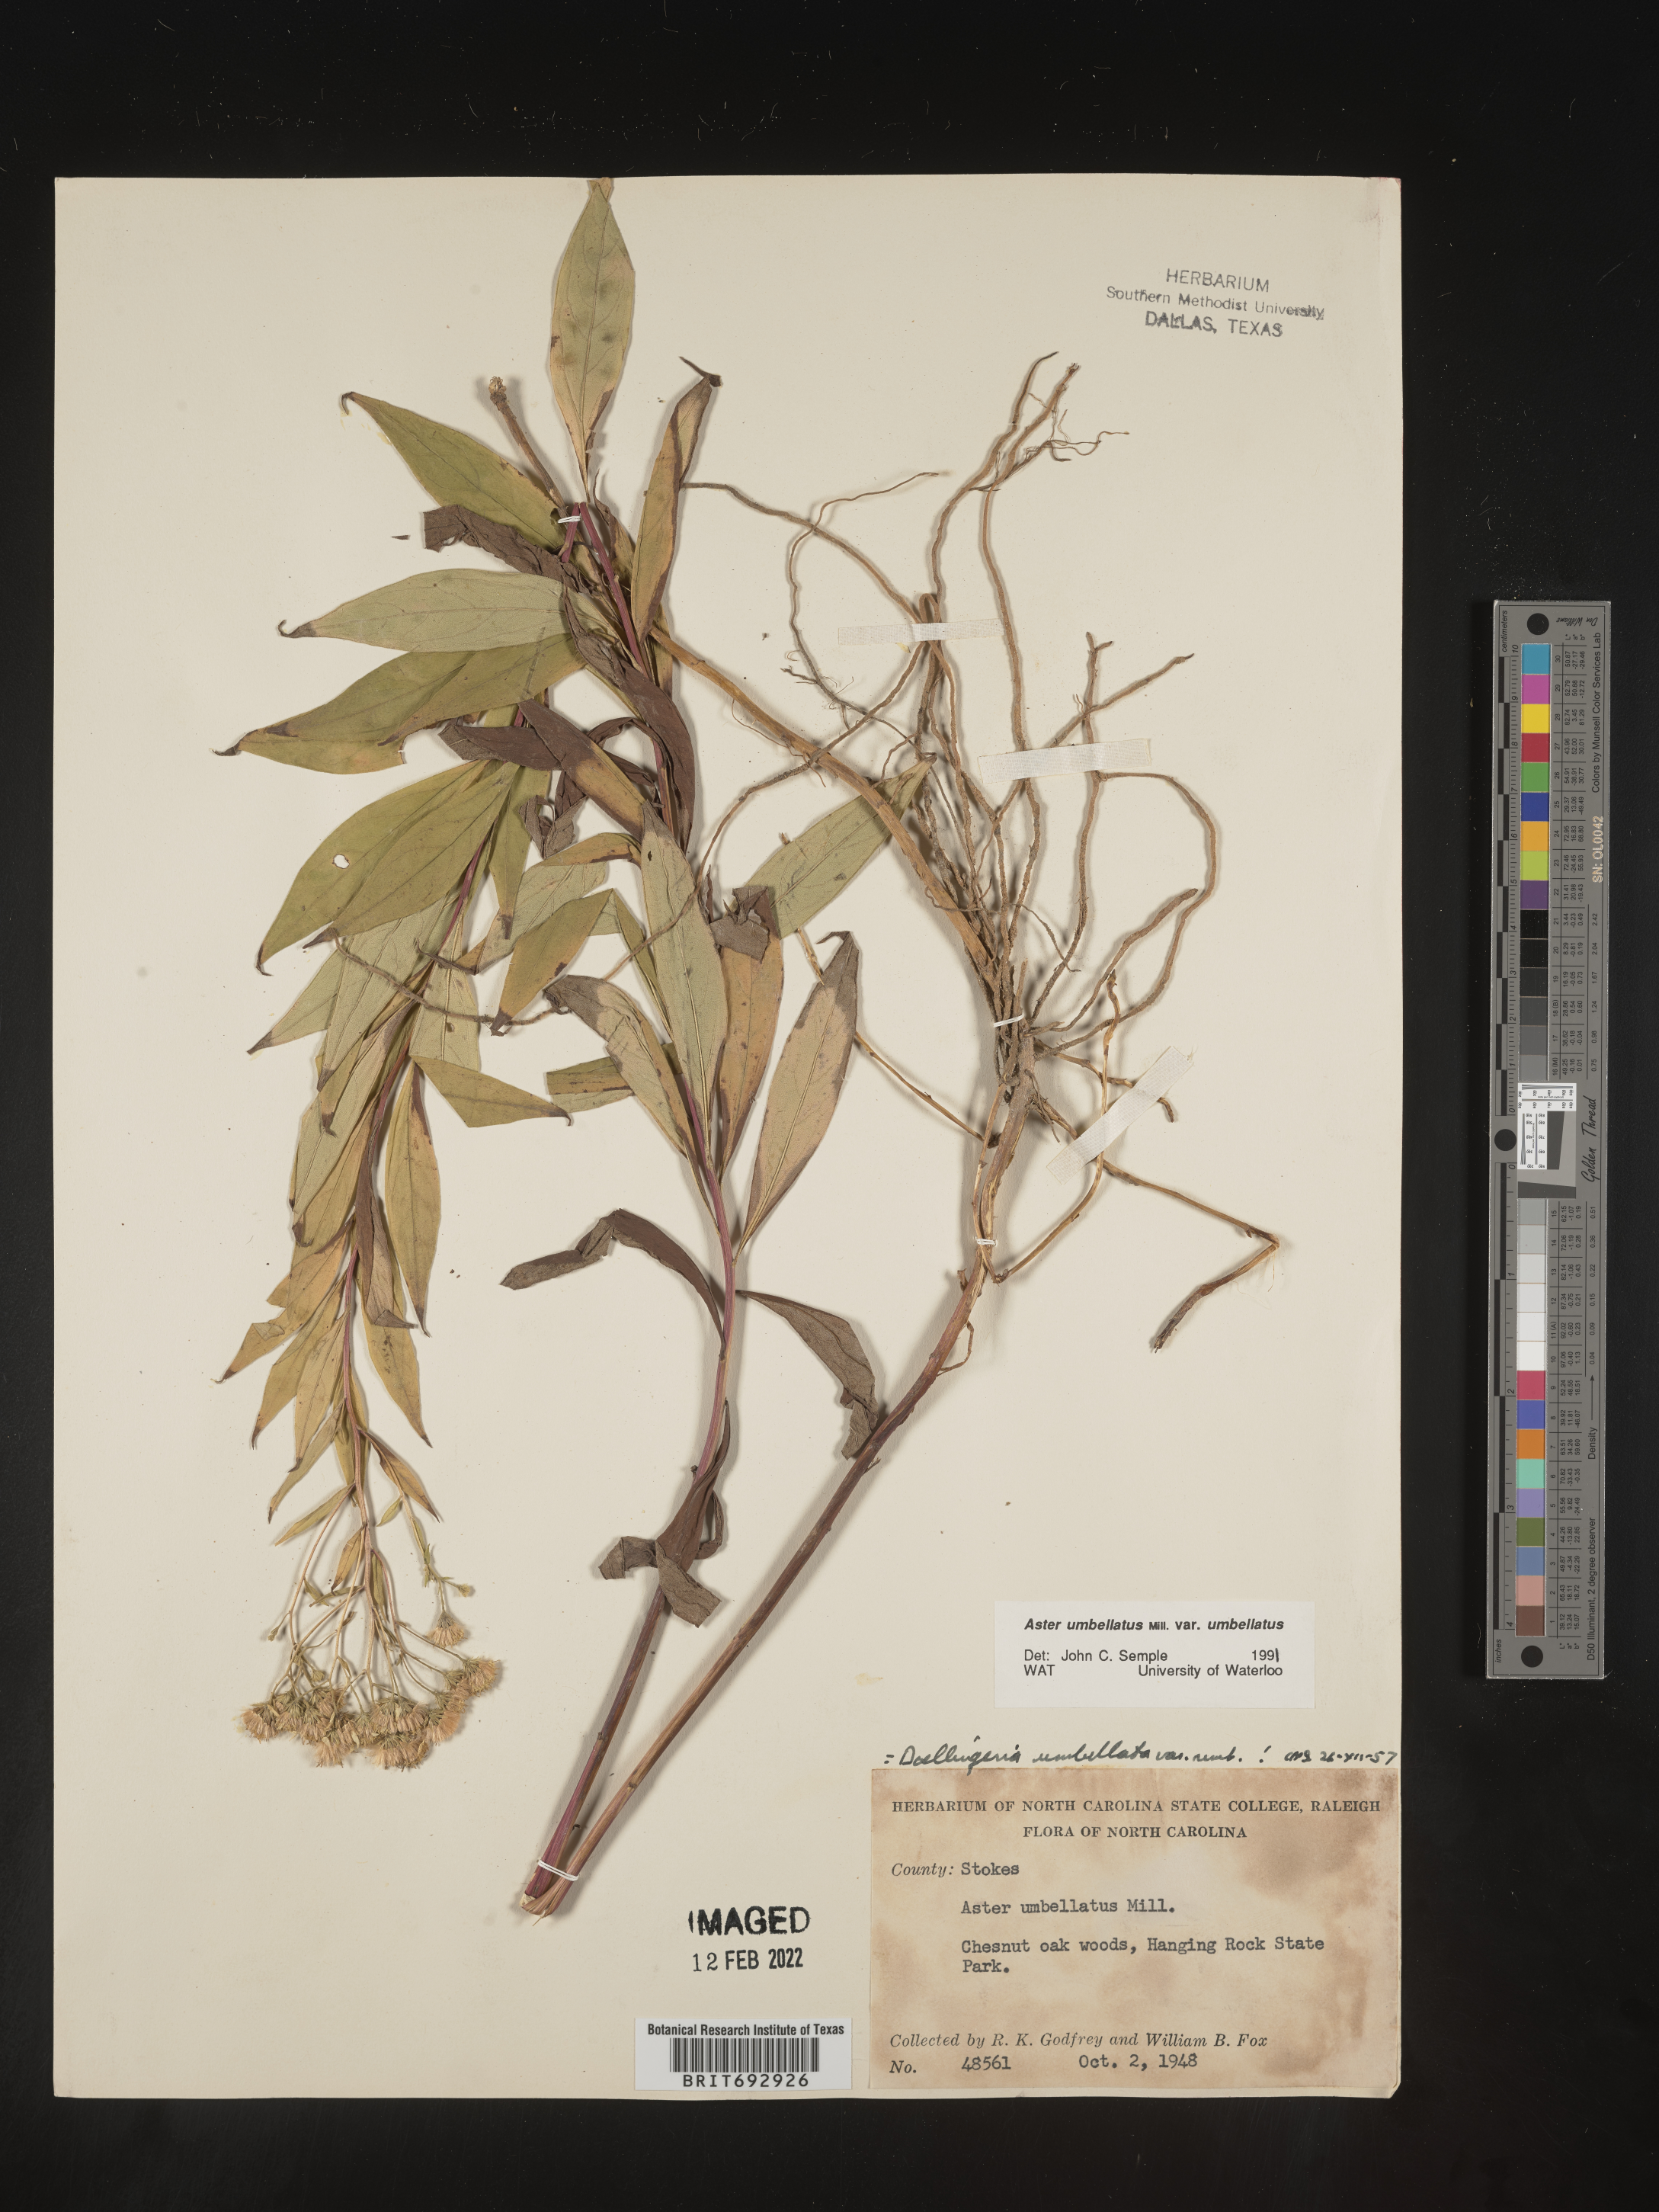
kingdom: Plantae
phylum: Tracheophyta
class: Magnoliopsida
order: Asterales
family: Asteraceae
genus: Doellingeria
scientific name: Doellingeria umbellata
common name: Flat-top white aster
